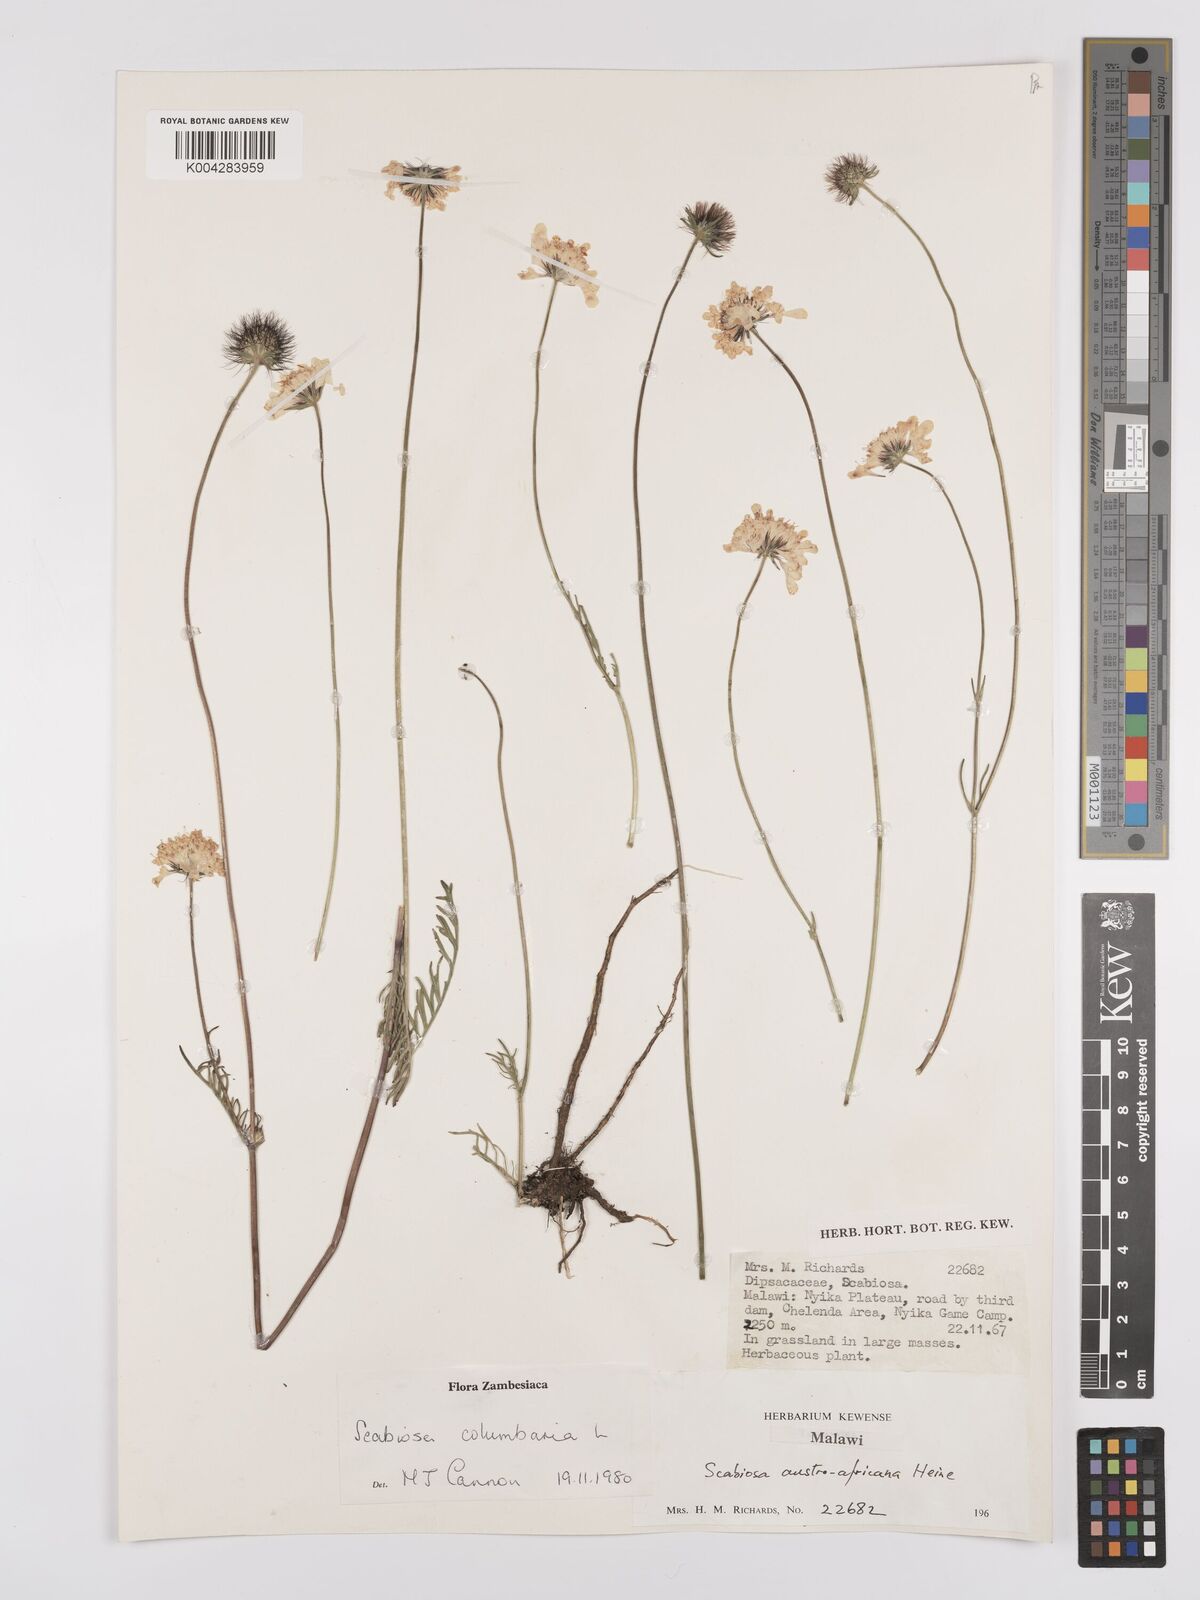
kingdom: Plantae
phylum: Tracheophyta
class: Magnoliopsida
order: Dipsacales
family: Caprifoliaceae
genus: Scabiosa
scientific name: Scabiosa austroafricana
